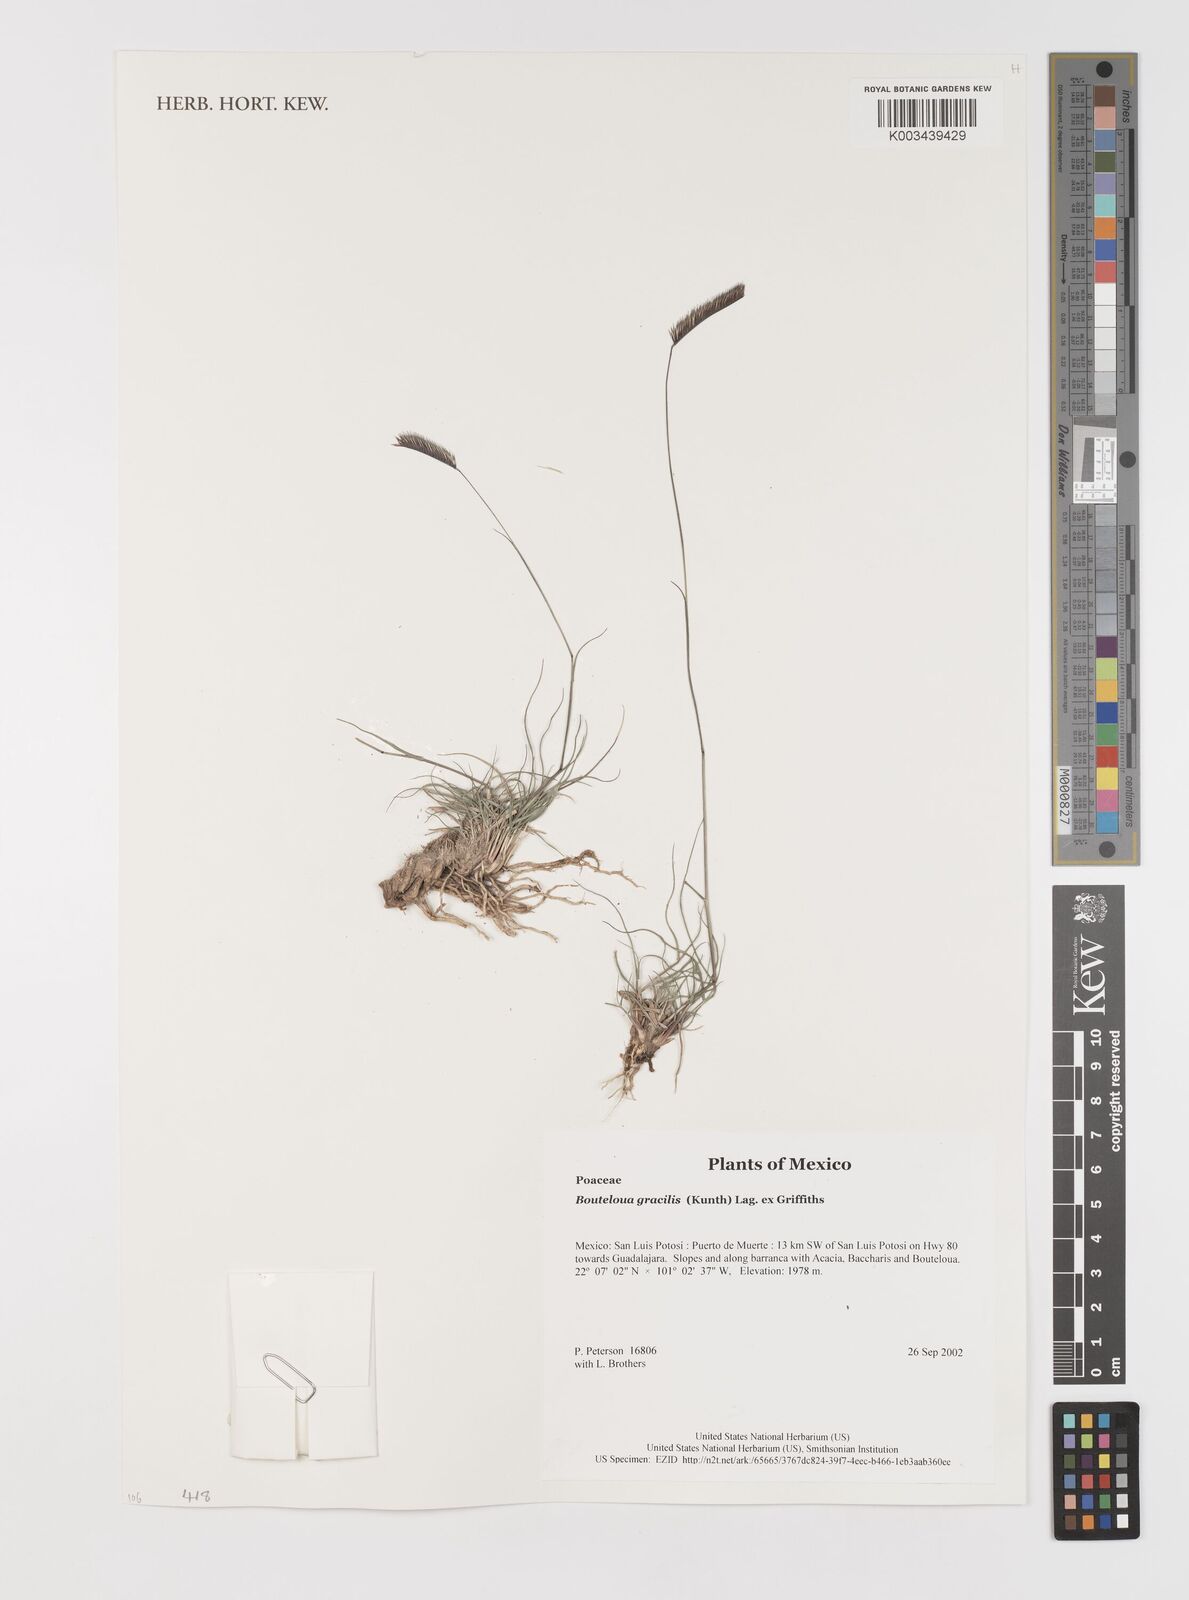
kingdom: Plantae
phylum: Tracheophyta
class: Liliopsida
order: Poales
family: Poaceae
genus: Bouteloua
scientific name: Bouteloua aristidoides
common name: Needle grama
